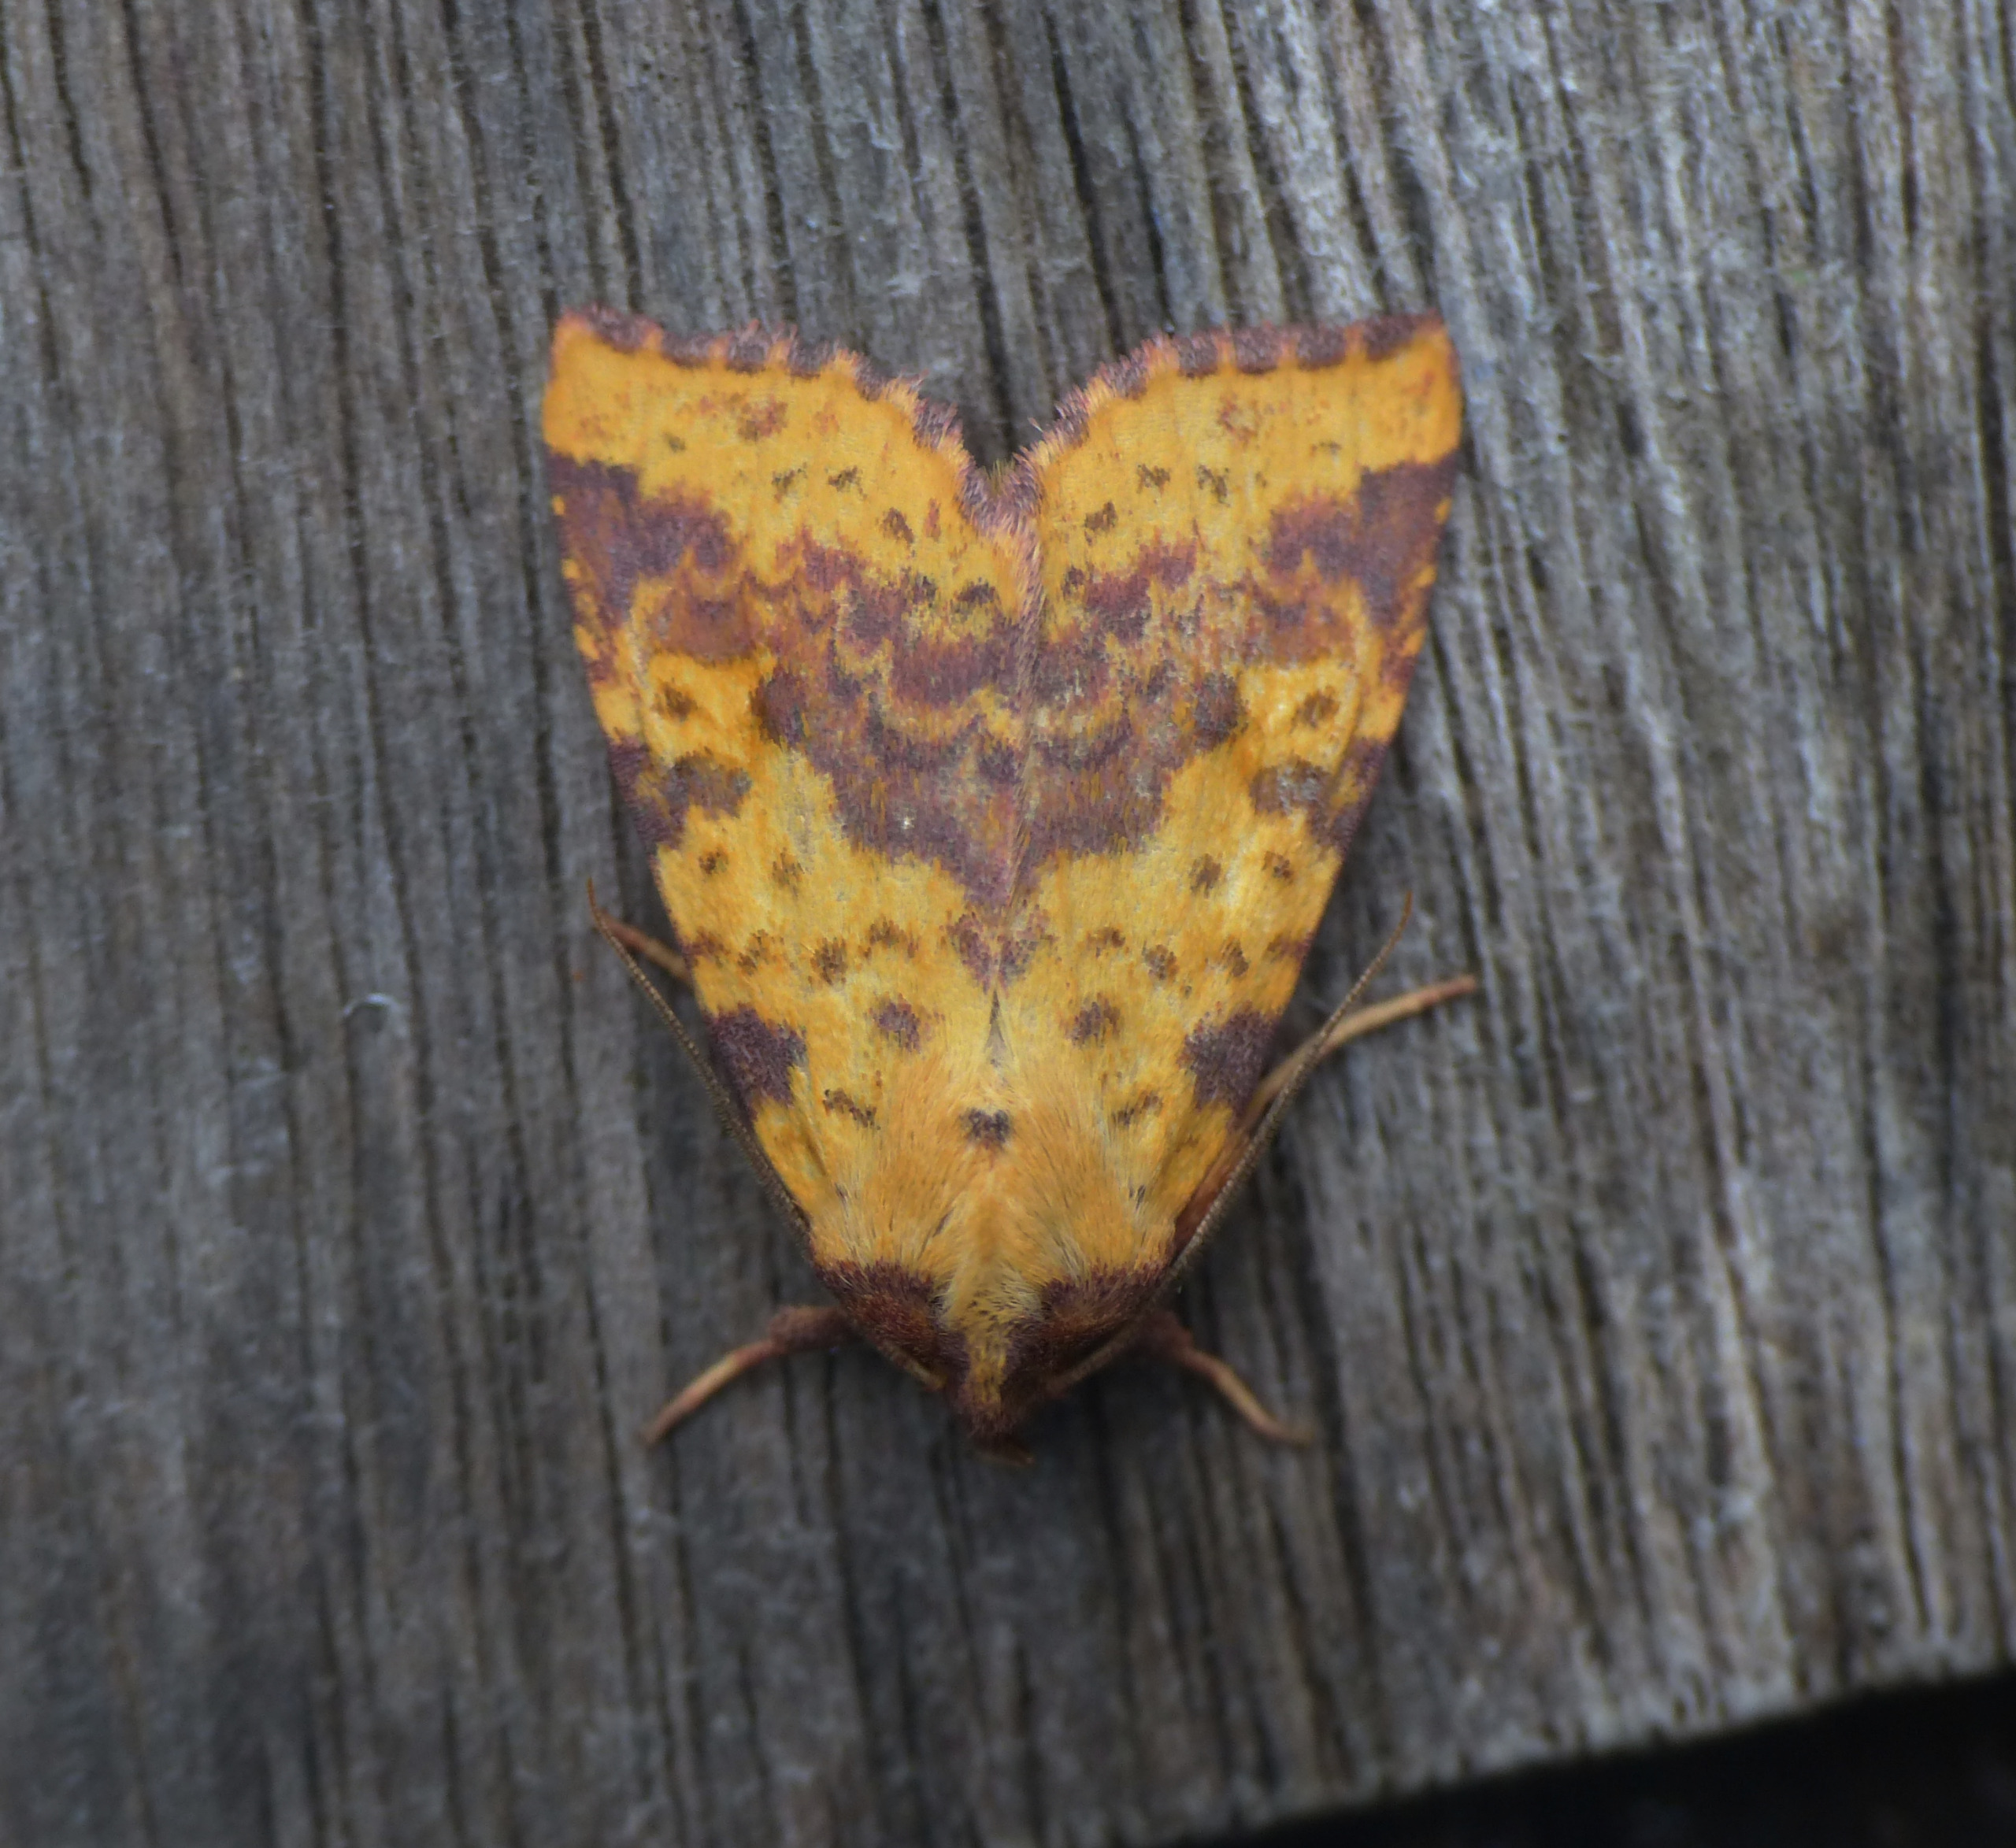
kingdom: Animalia
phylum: Arthropoda
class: Insecta
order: Lepidoptera
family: Noctuidae
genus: Xanthia
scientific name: Xanthia togata
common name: Toga-septemberugle
